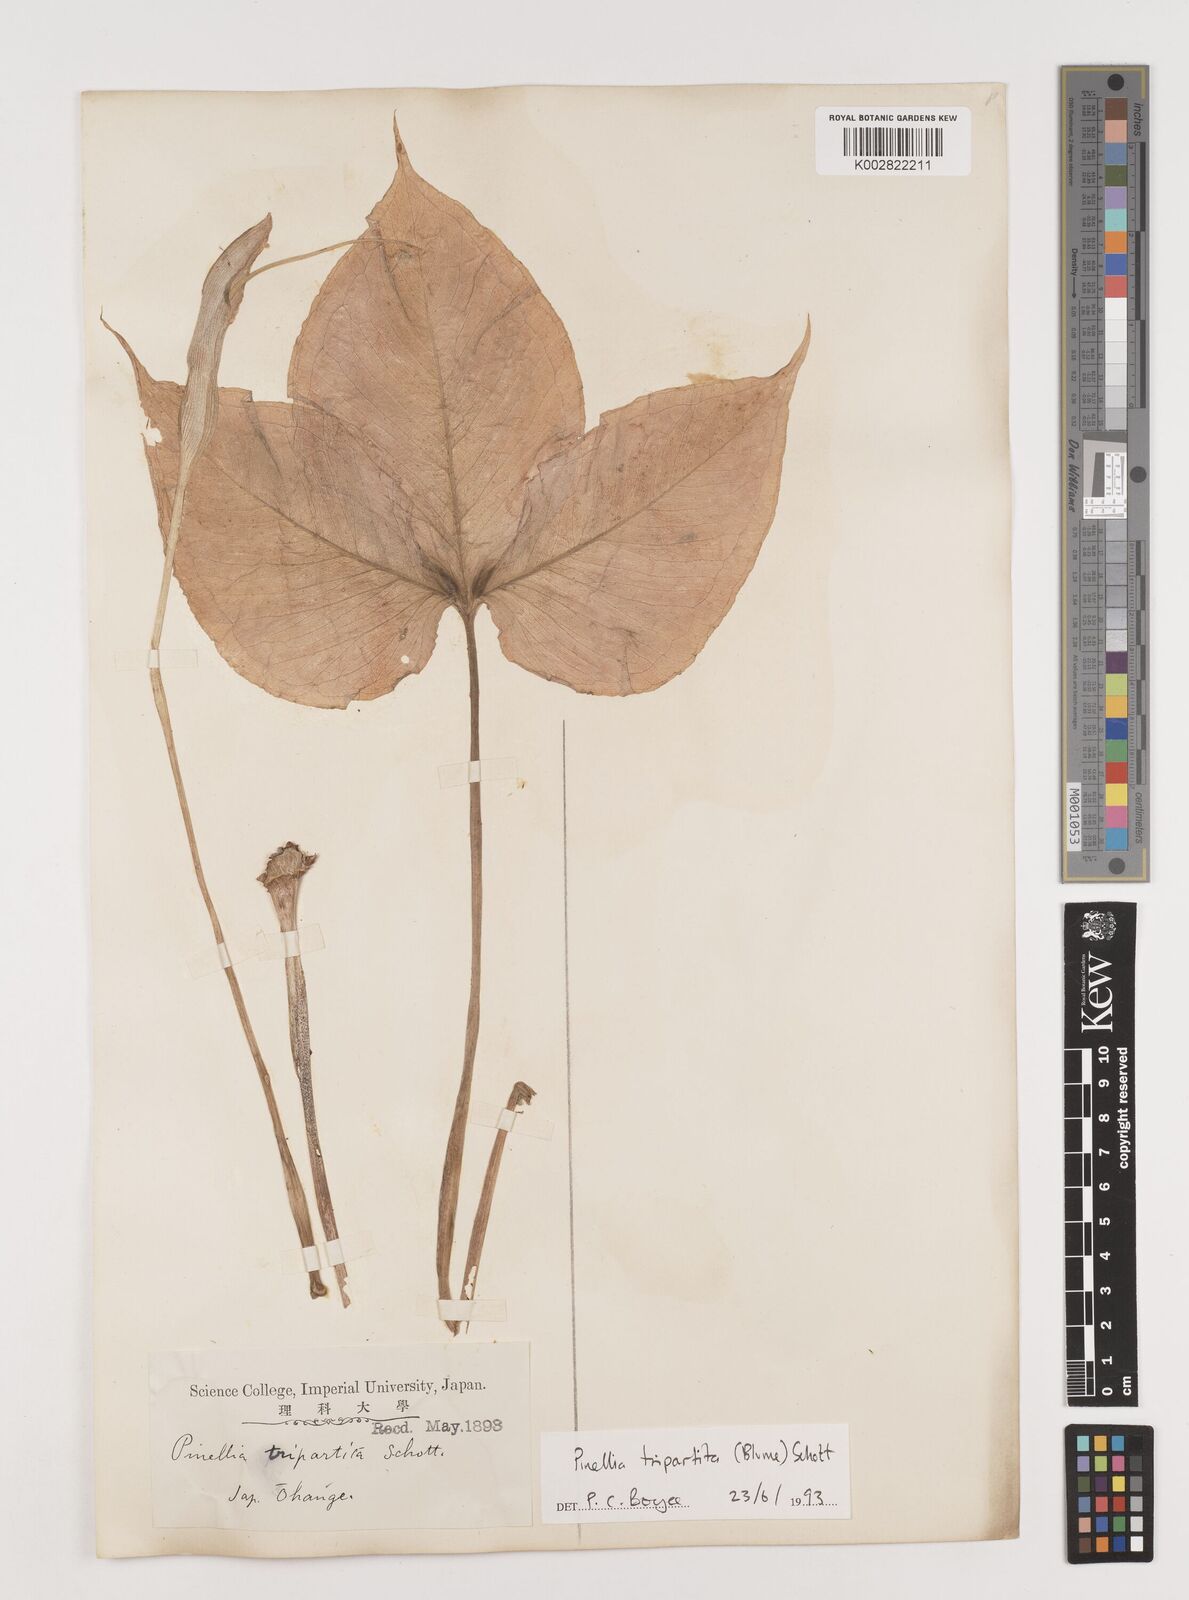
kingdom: Plantae
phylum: Tracheophyta
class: Liliopsida
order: Alismatales
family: Araceae
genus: Pinellia
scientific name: Pinellia tripartita
